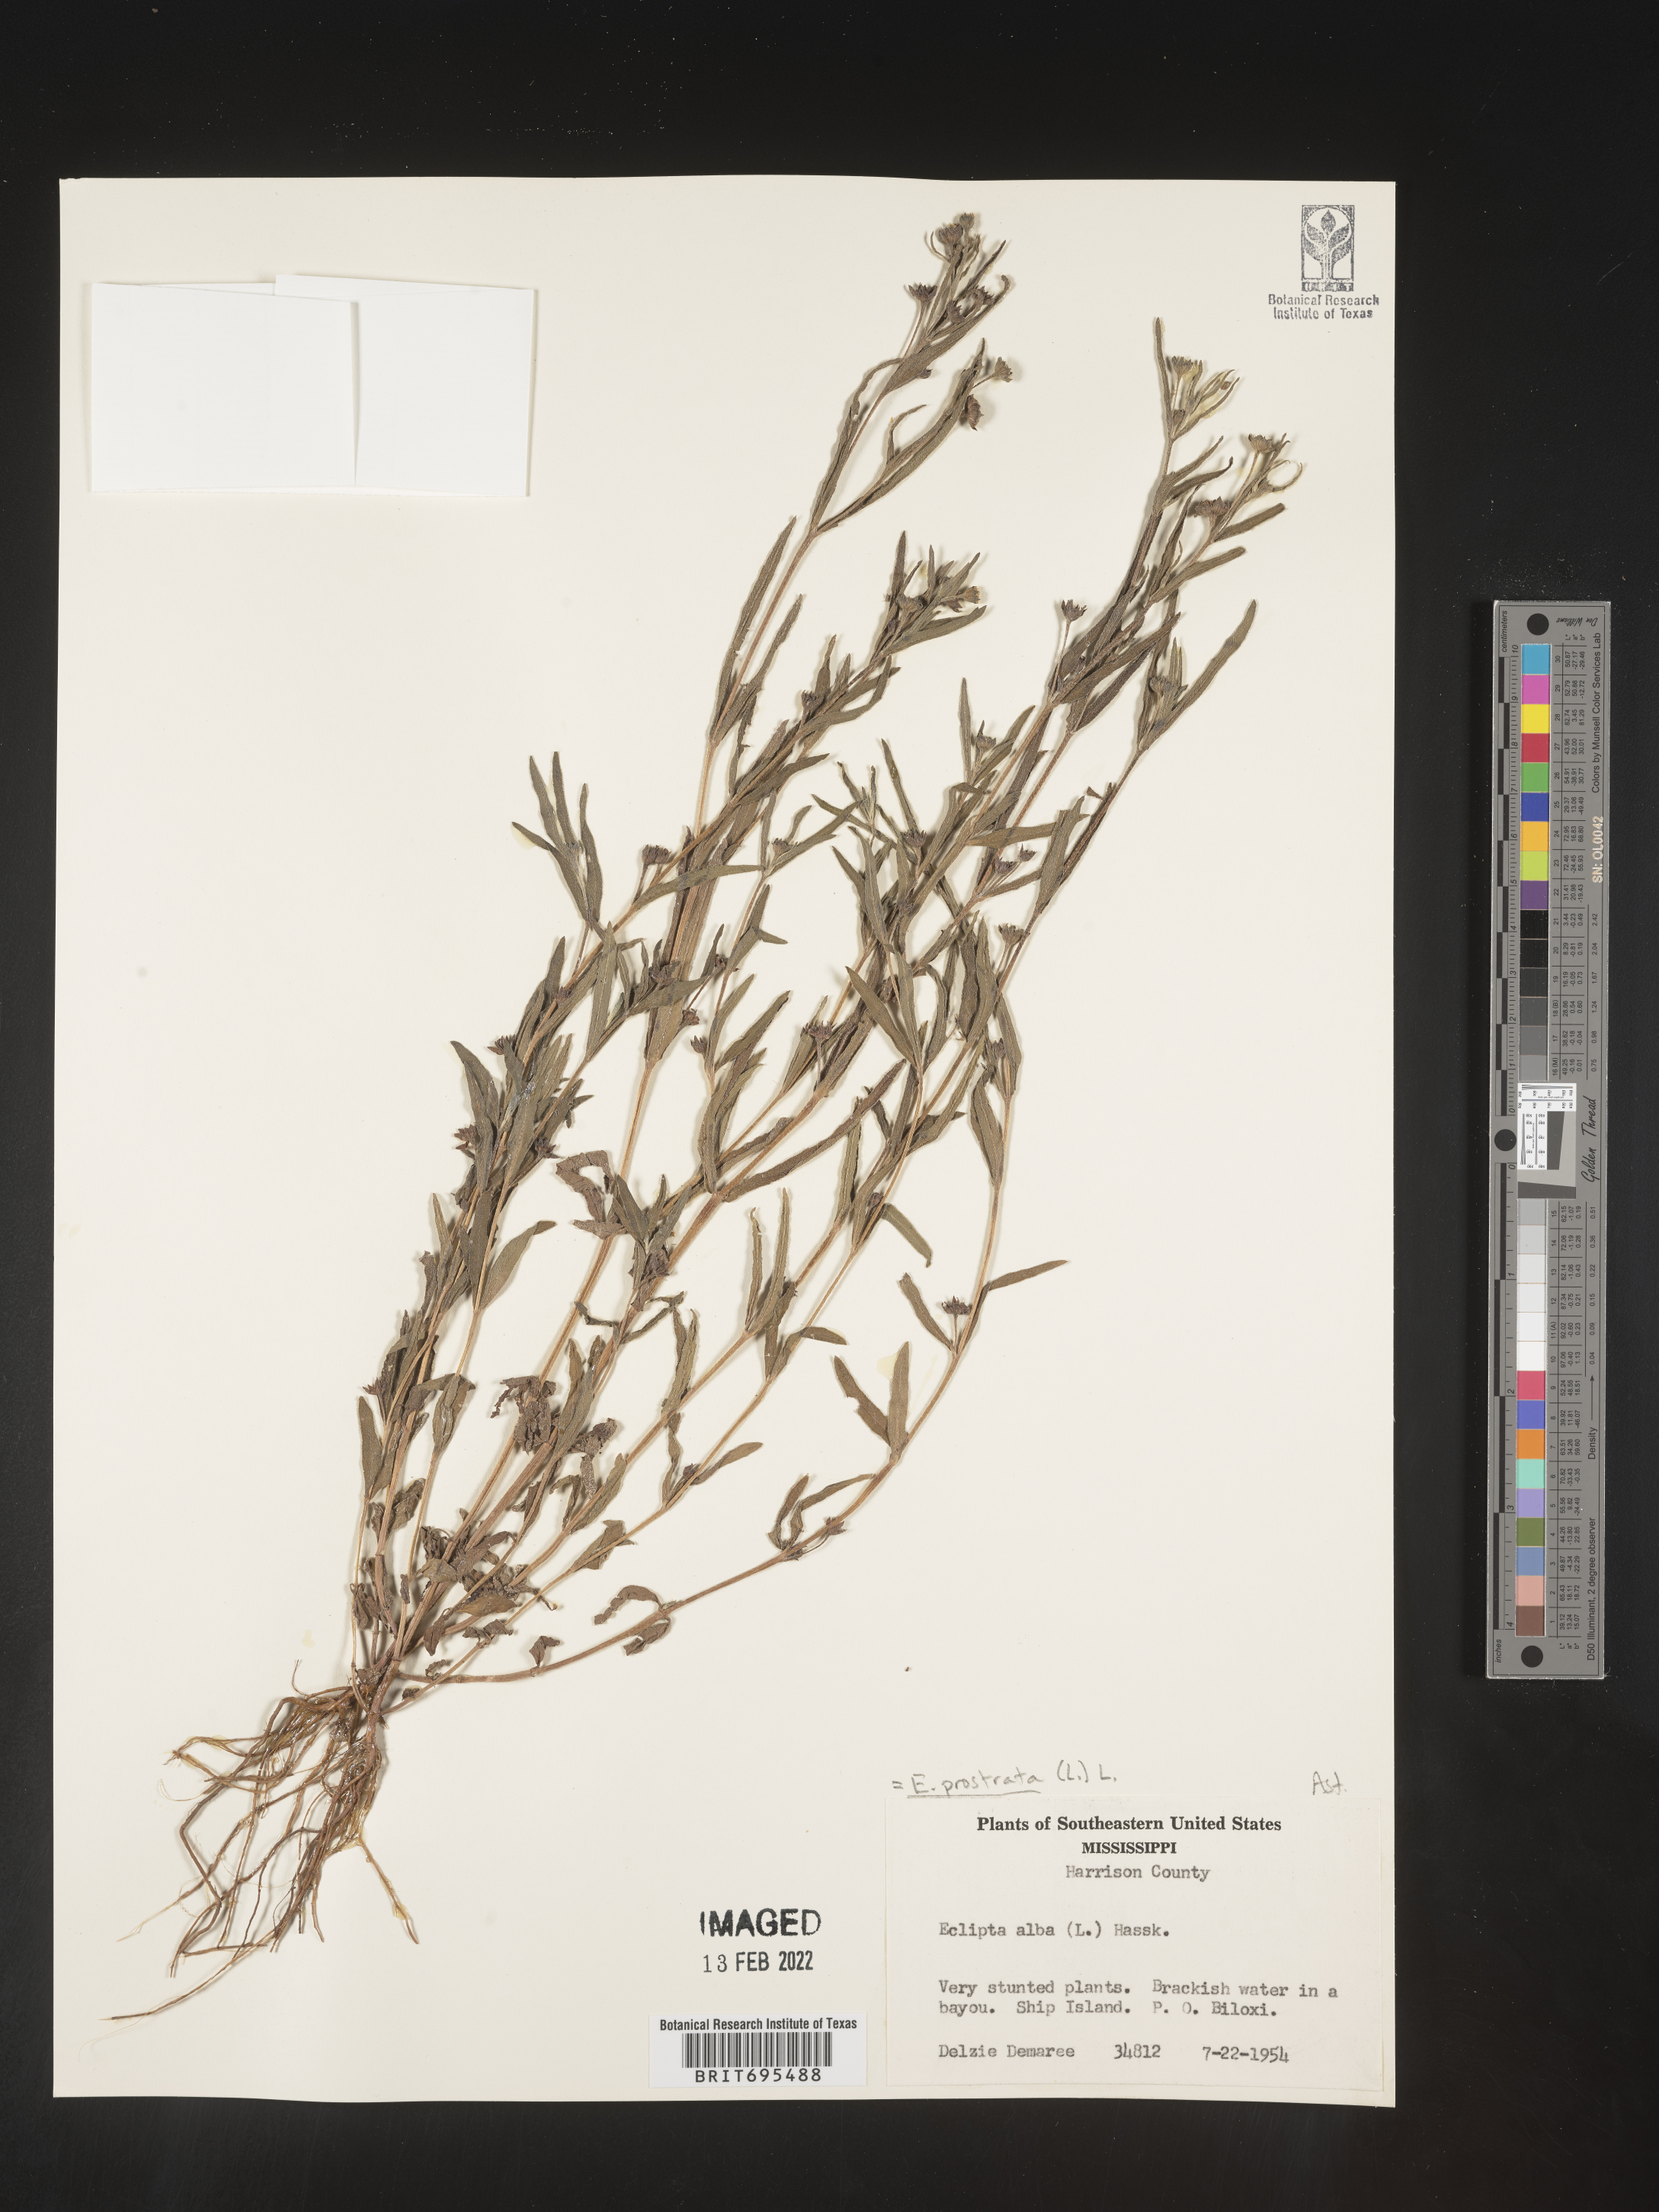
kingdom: Plantae
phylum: Tracheophyta
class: Magnoliopsida
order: Asterales
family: Asteraceae
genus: Eclipta
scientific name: Eclipta alba
